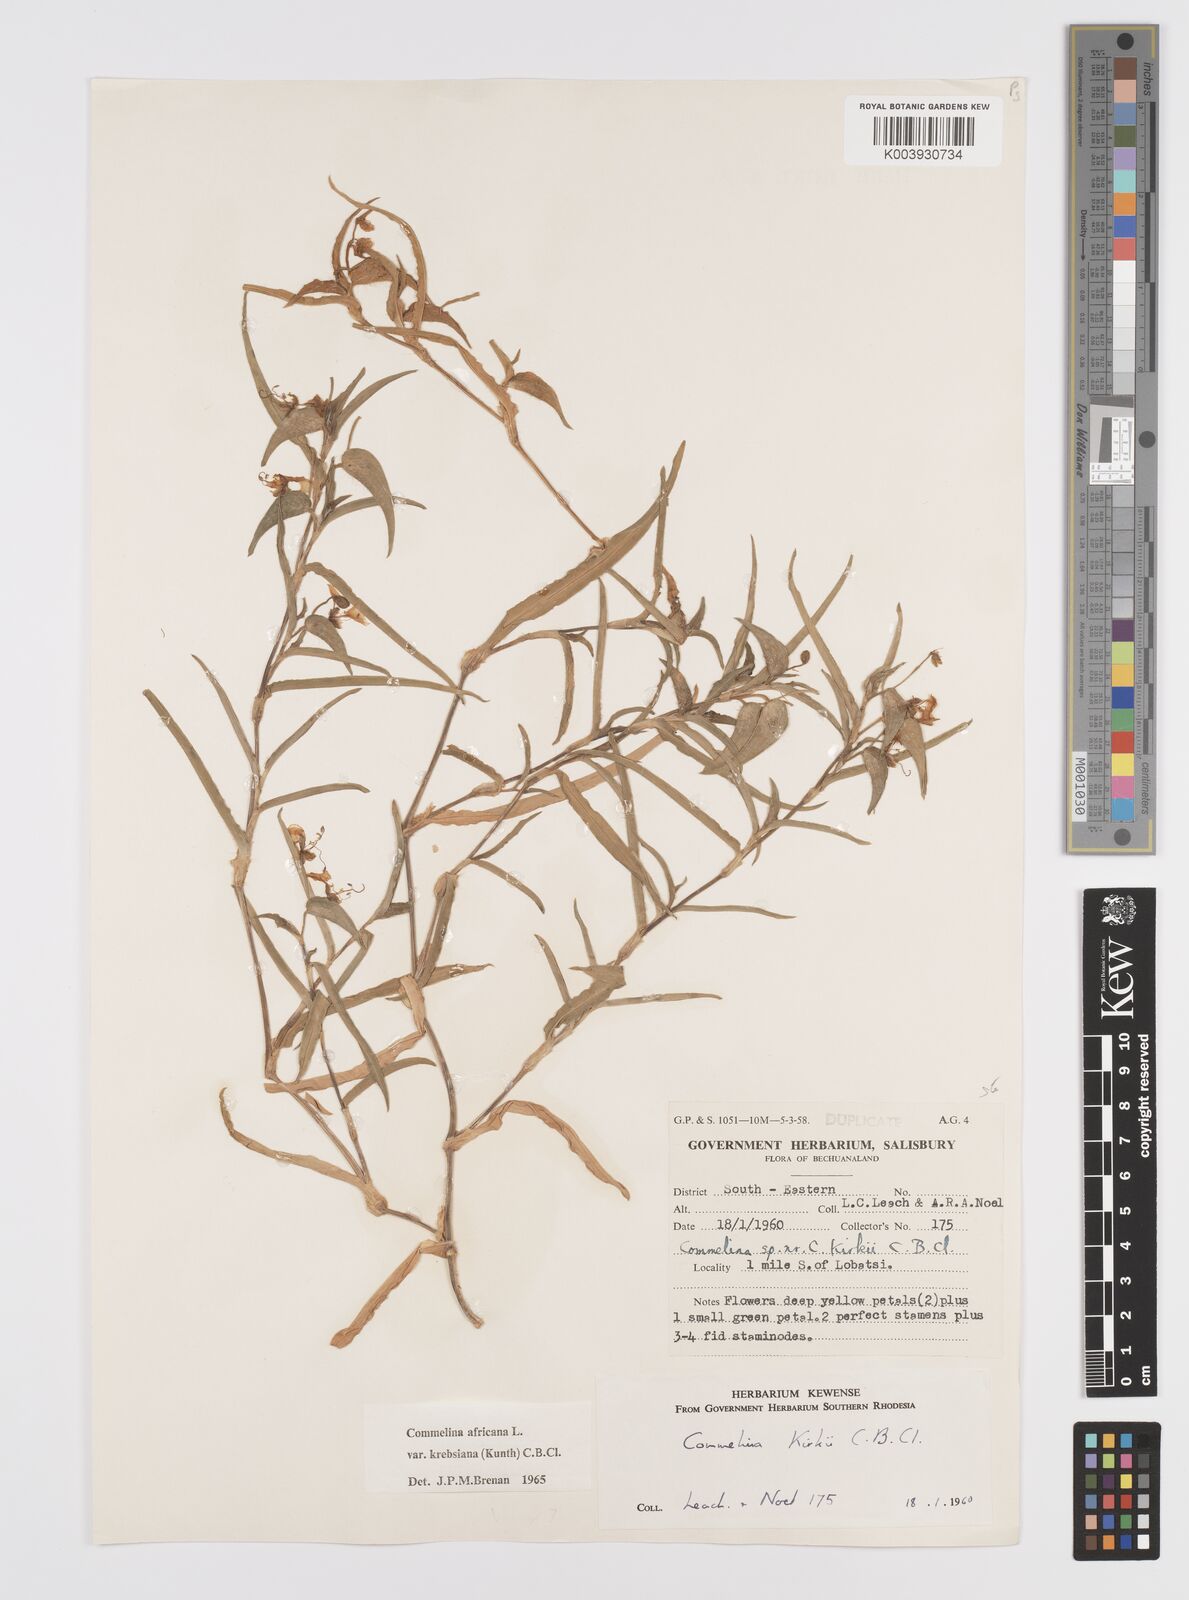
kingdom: Plantae
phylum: Tracheophyta
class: Liliopsida
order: Commelinales
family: Commelinaceae
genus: Commelina
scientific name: Commelina africana
